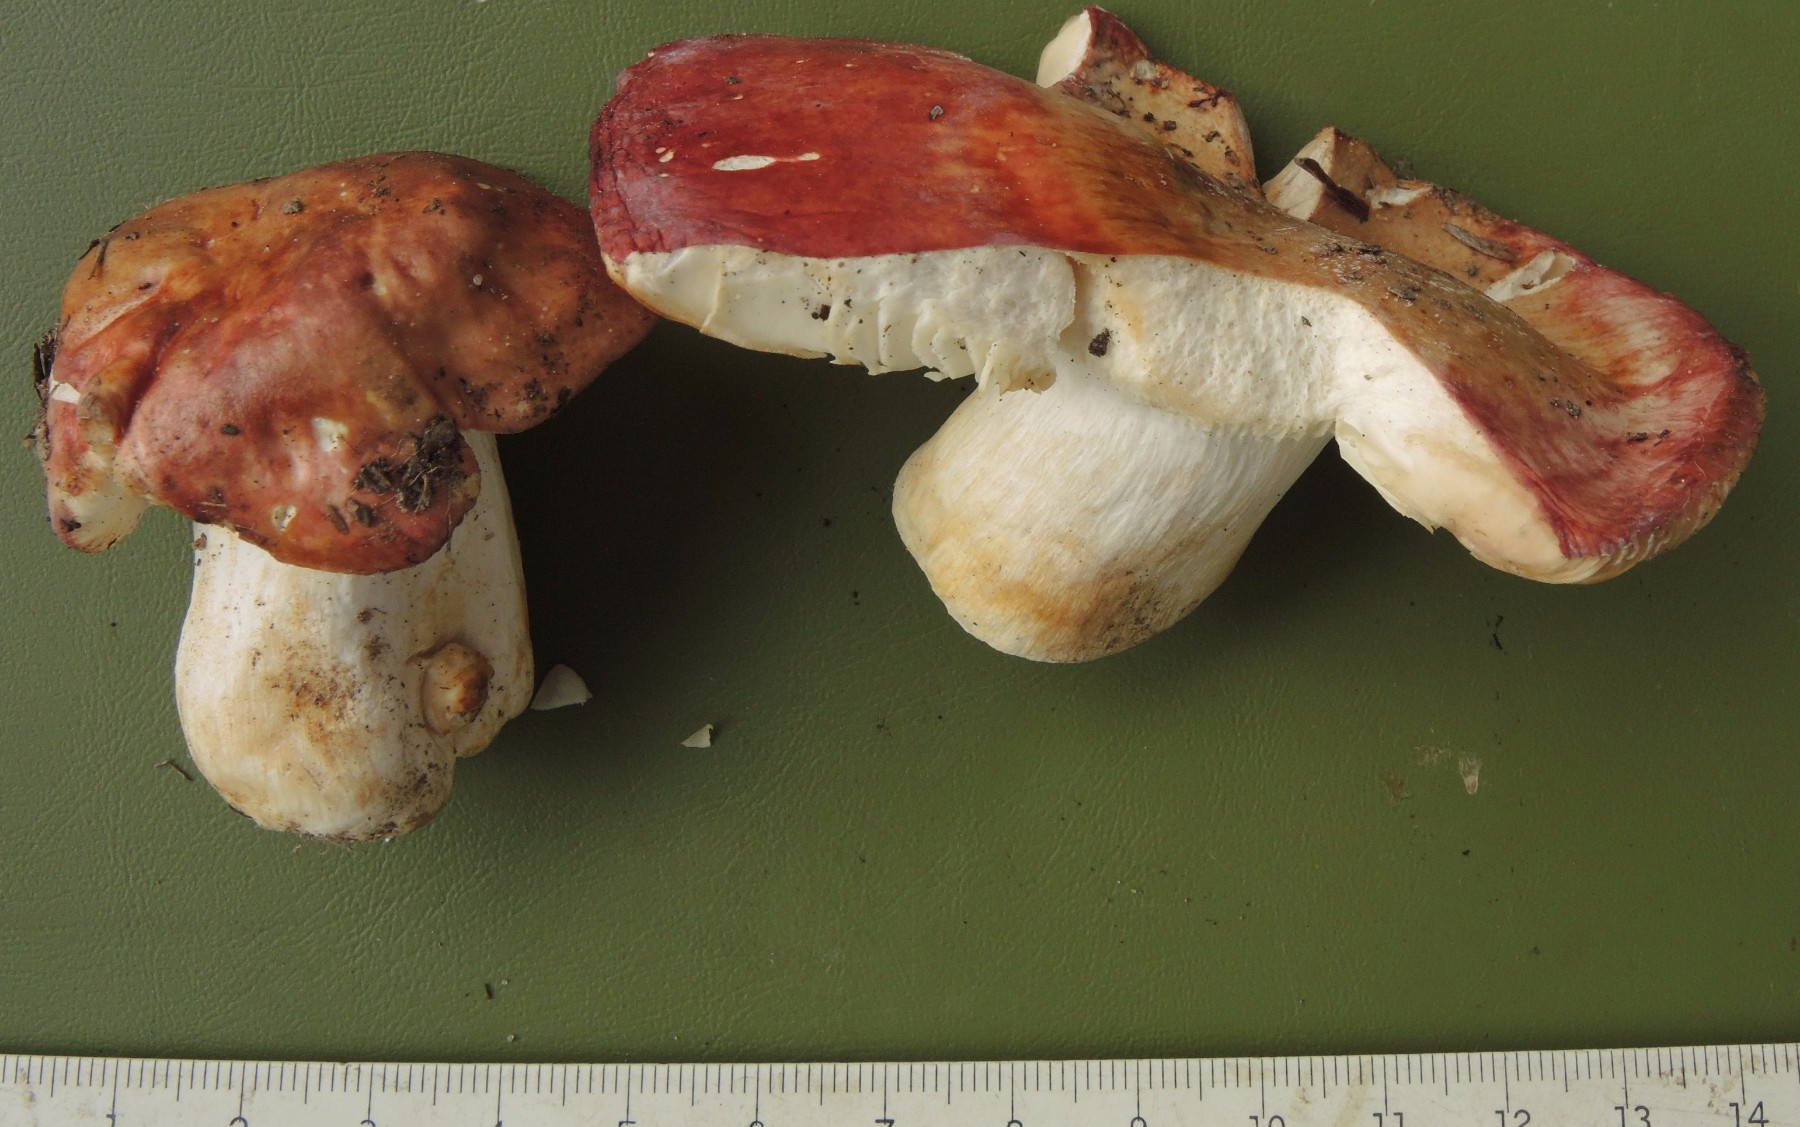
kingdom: Fungi
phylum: Basidiomycota
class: Agaricomycetes
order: Russulales
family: Russulaceae
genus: Russula
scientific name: Russula melliolens
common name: honning-skørhat
